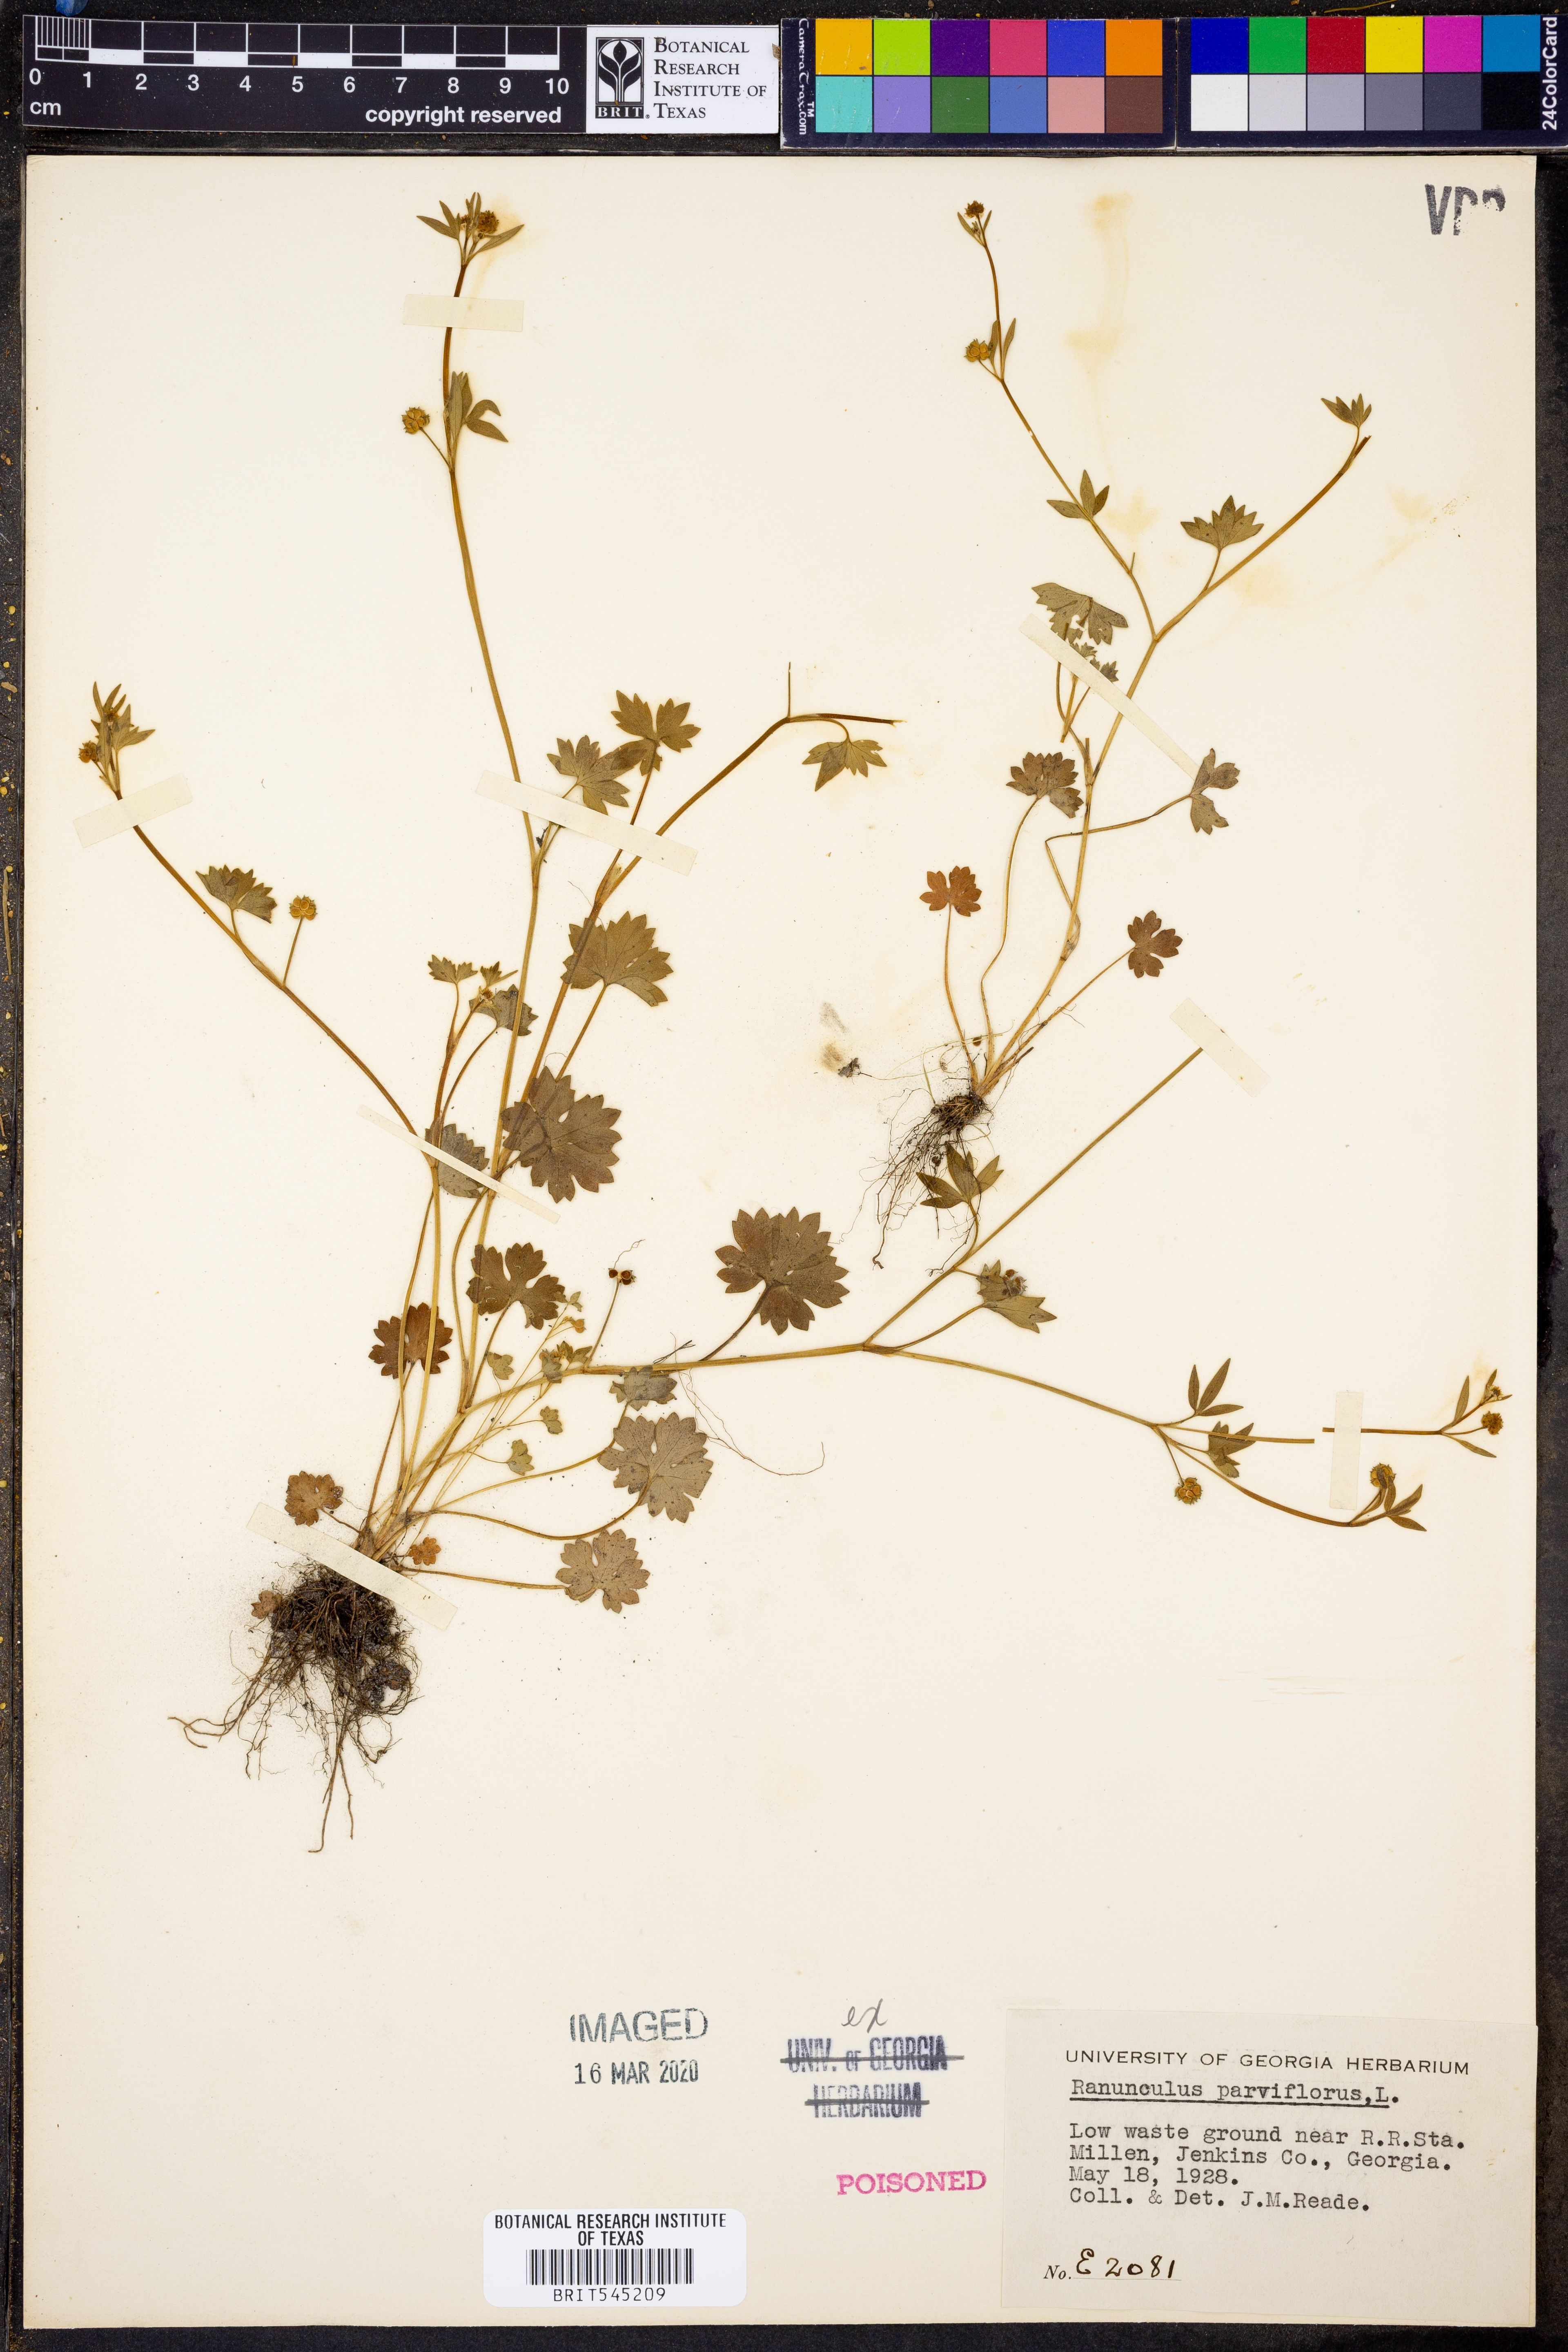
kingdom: Plantae
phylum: Tracheophyta
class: Magnoliopsida
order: Ranunculales
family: Ranunculaceae
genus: Ranunculus
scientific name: Ranunculus parviflorus
